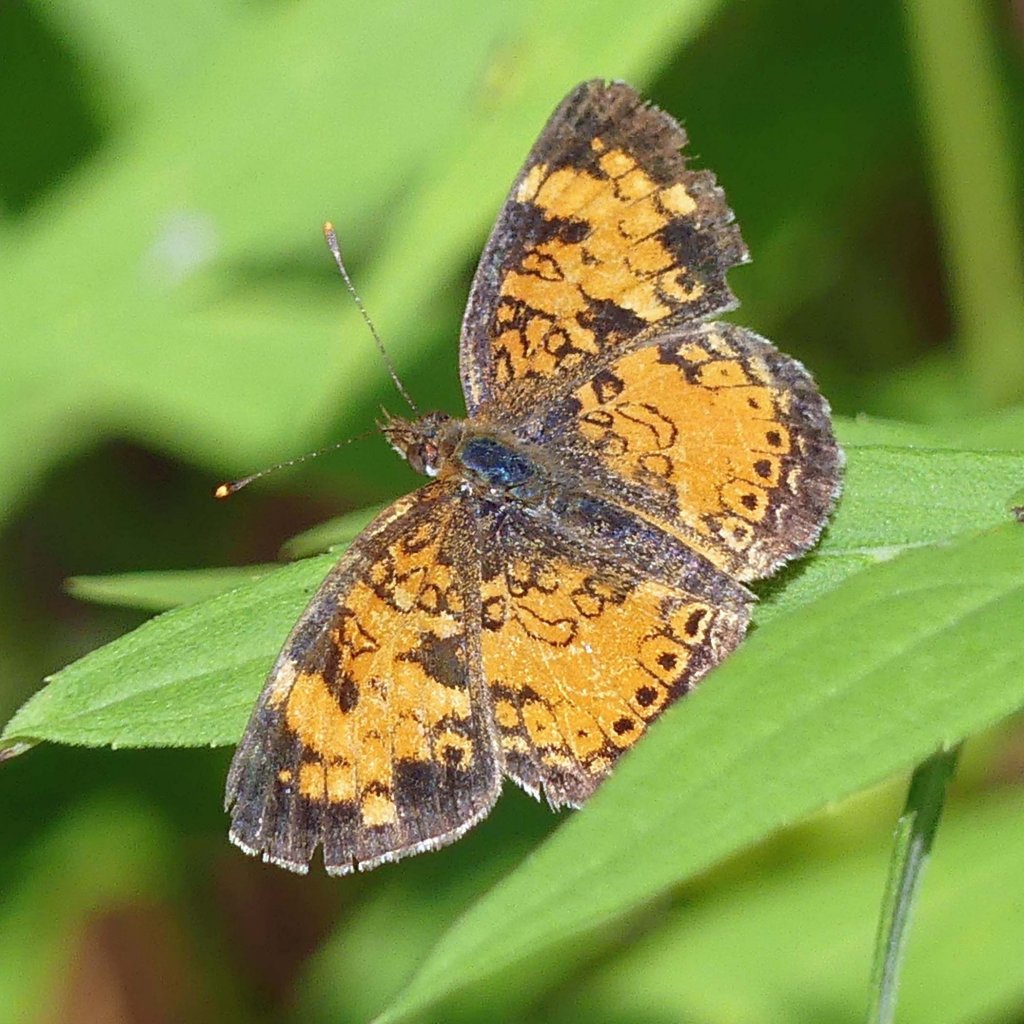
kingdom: Animalia
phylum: Arthropoda
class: Insecta
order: Lepidoptera
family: Nymphalidae
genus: Phyciodes
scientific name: Phyciodes tharos
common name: Northern Crescent
